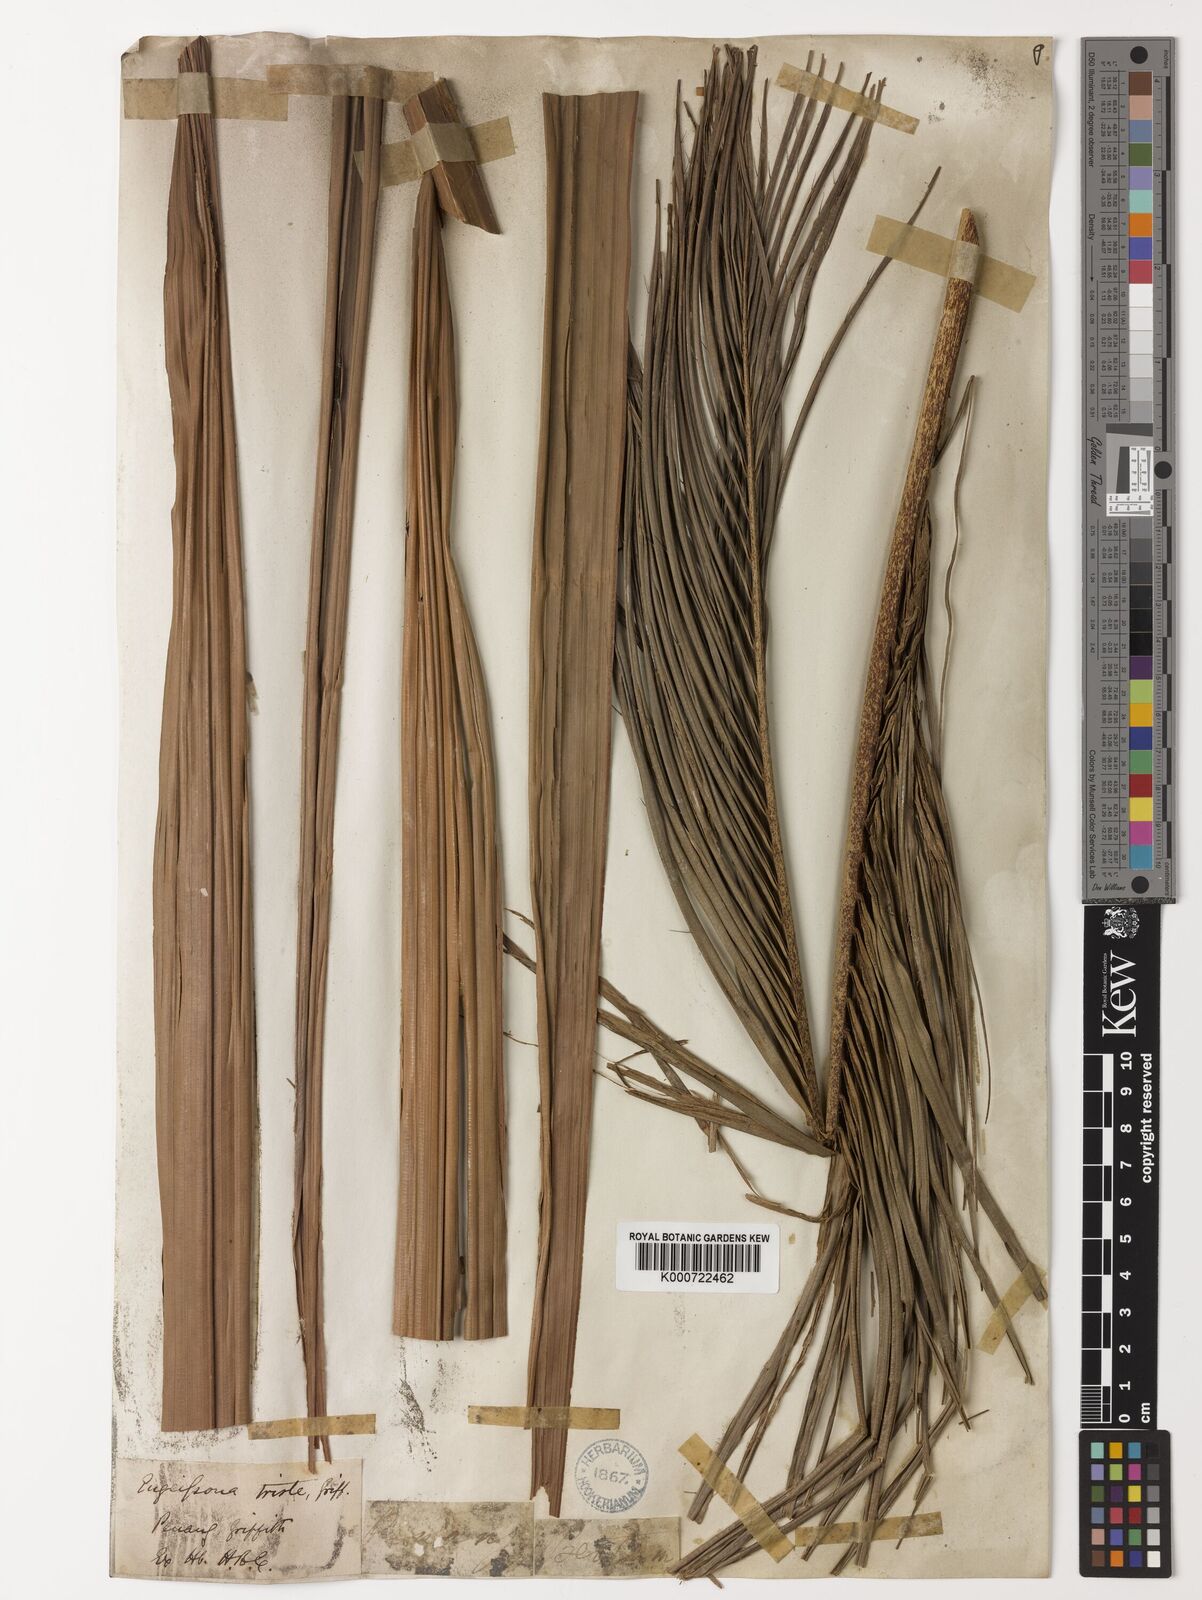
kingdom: Plantae
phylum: Tracheophyta
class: Liliopsida
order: Arecales
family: Arecaceae
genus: Eugeissona
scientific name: Eugeissona tristis
